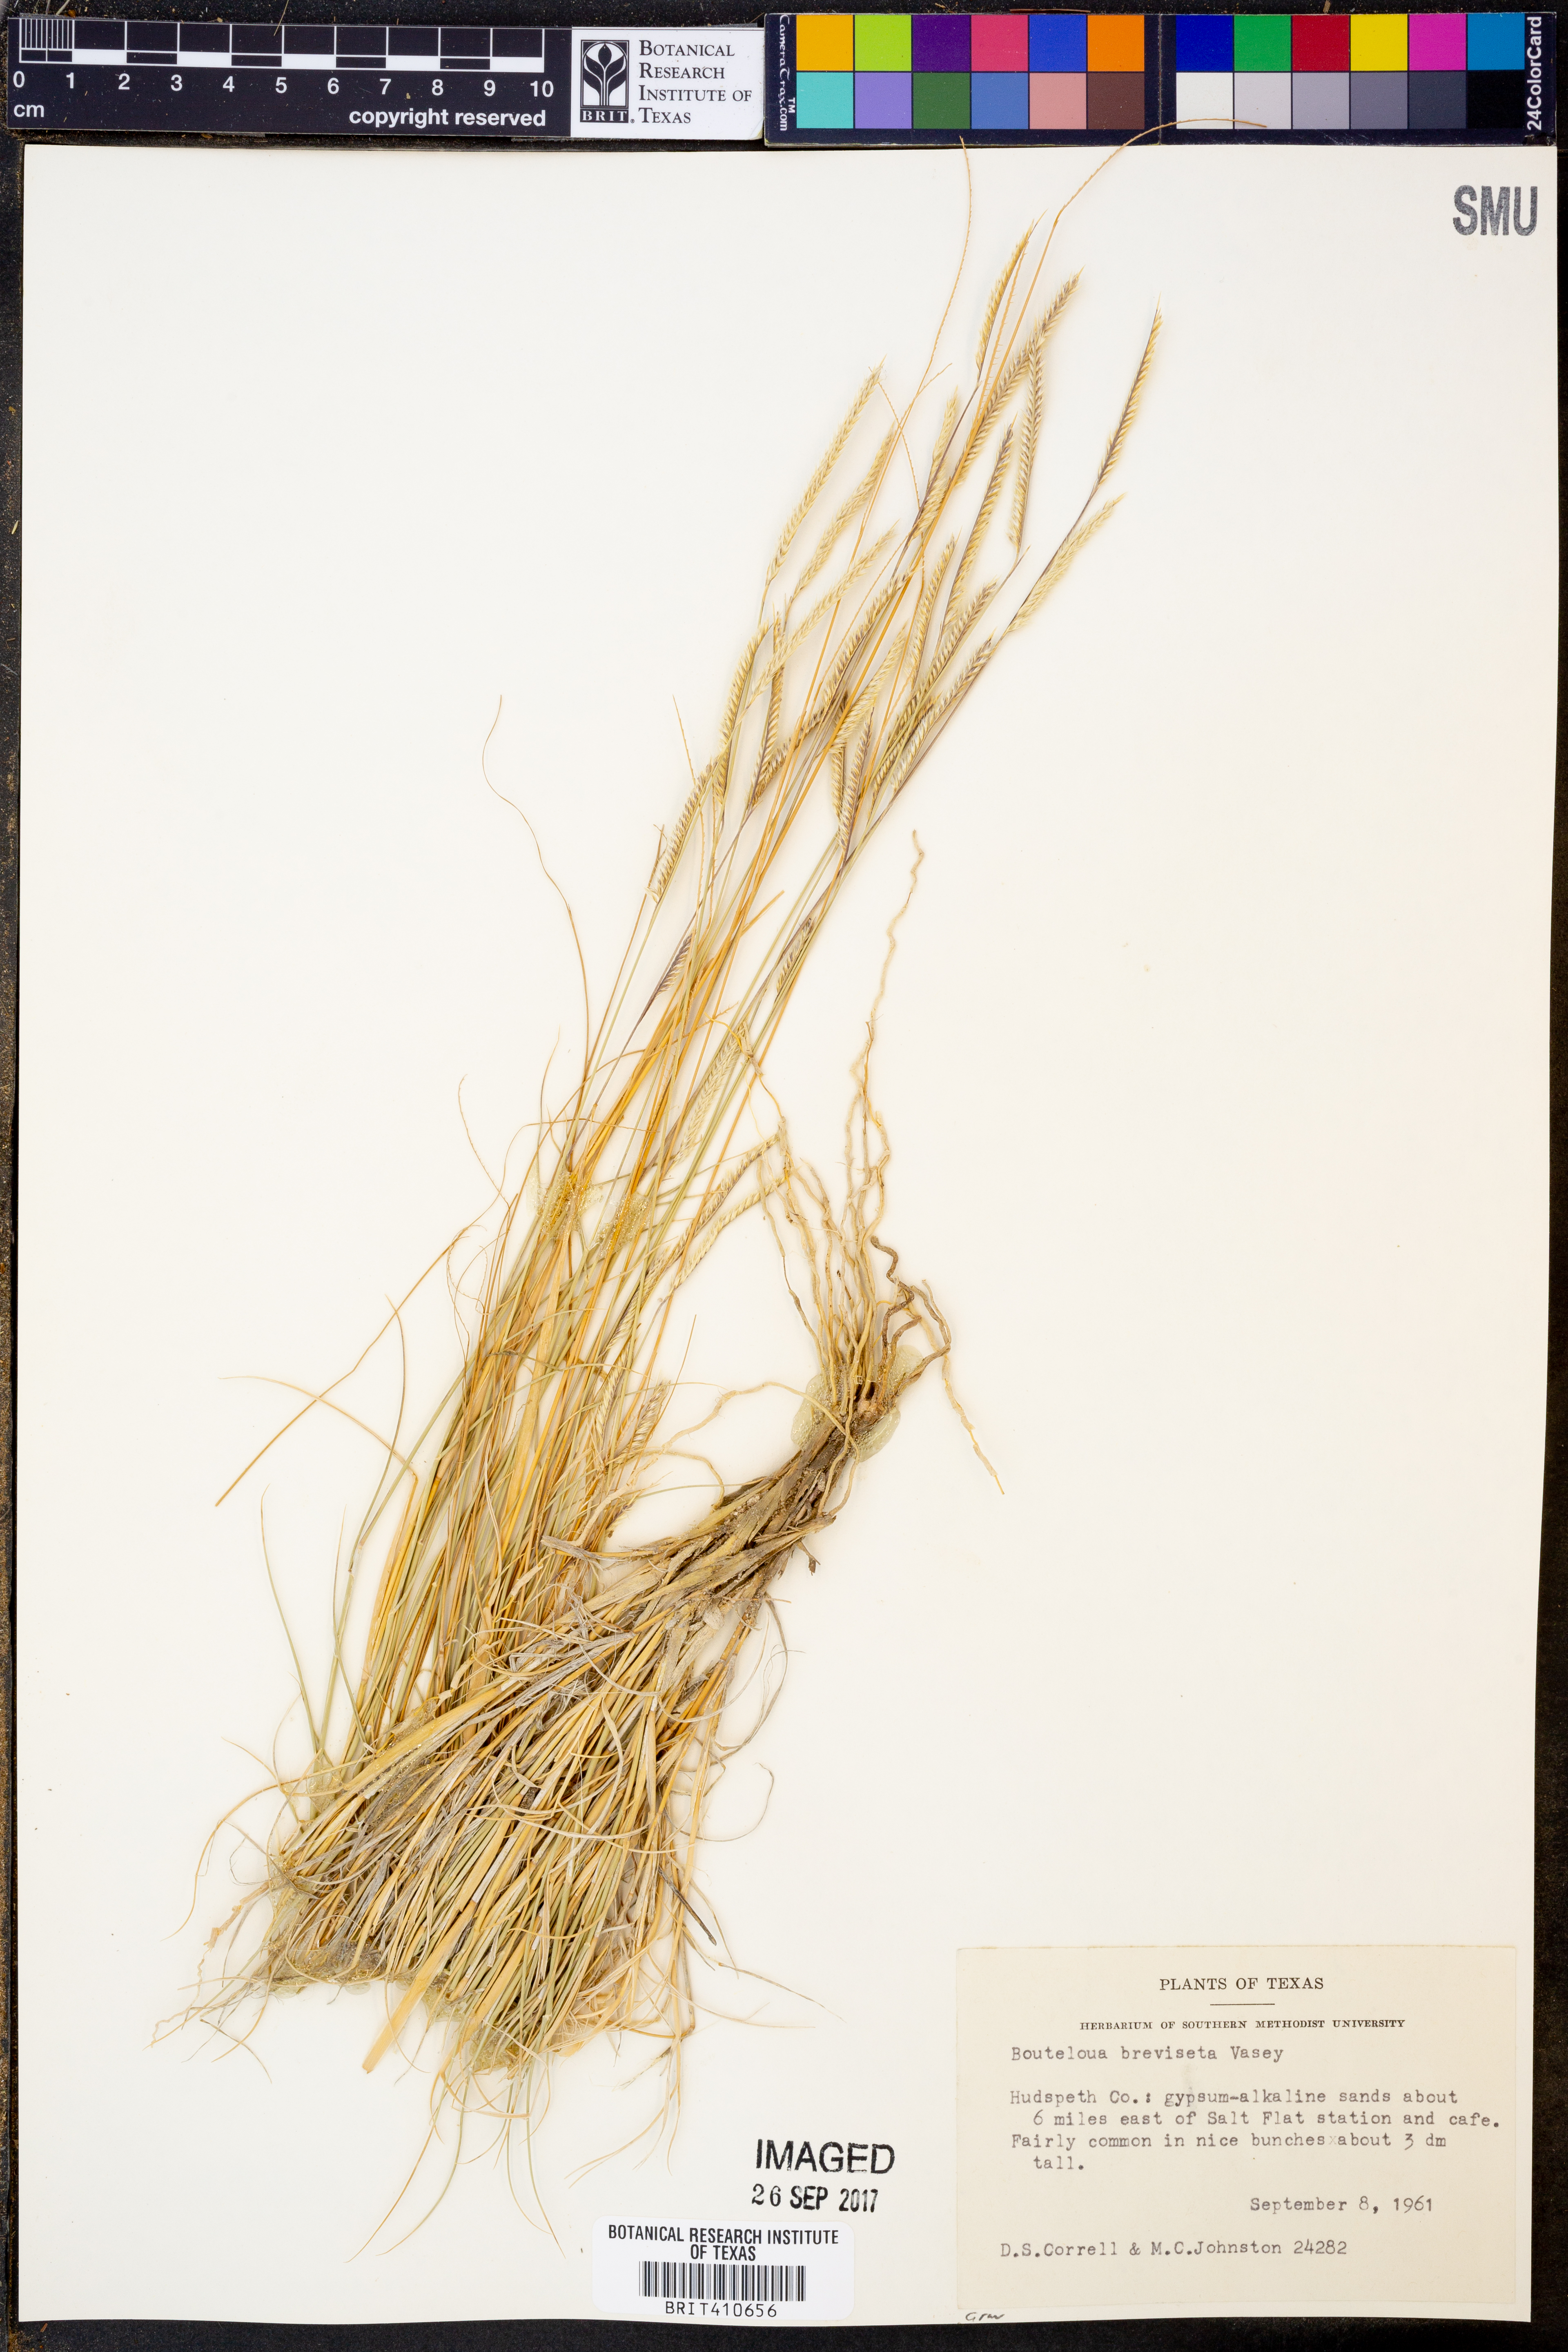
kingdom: Plantae
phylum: Tracheophyta
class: Liliopsida
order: Poales
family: Poaceae
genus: Bouteloua
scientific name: Bouteloua breviseta
